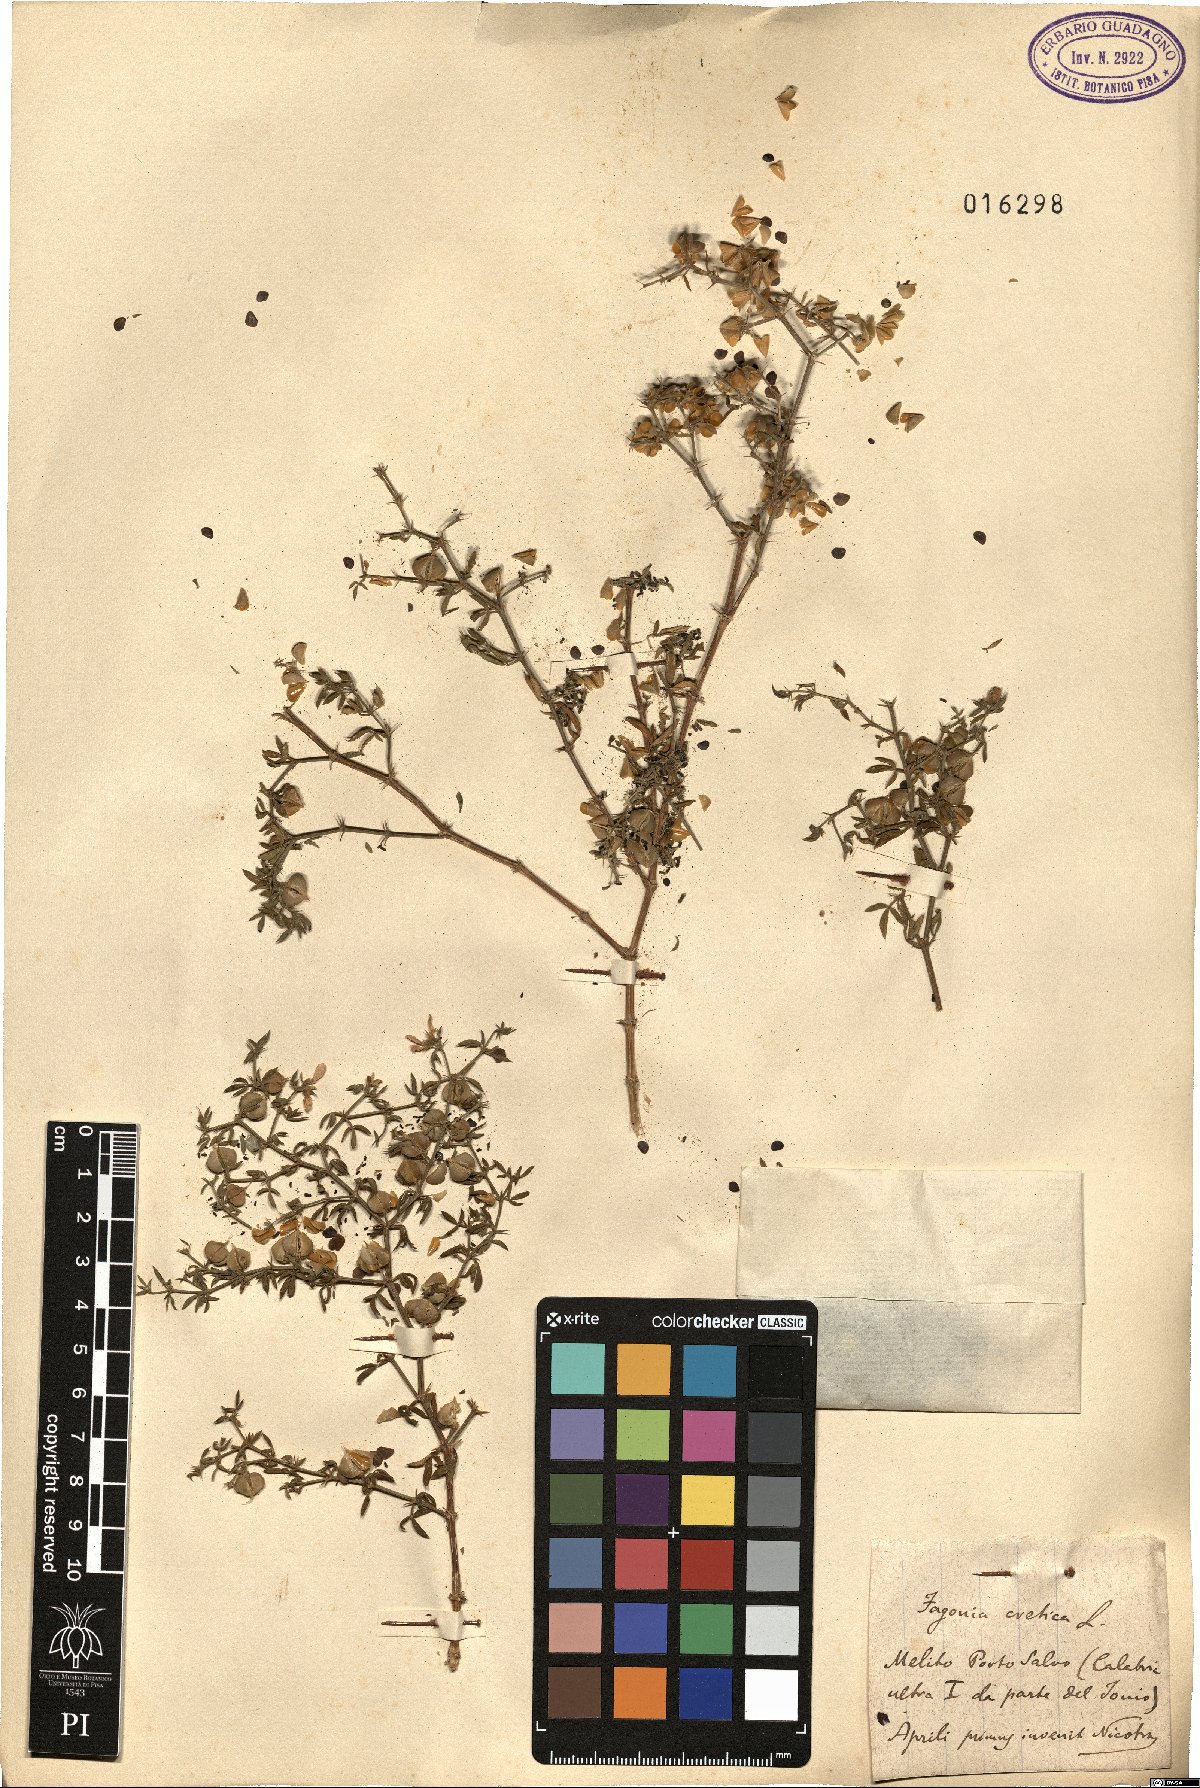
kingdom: Plantae
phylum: Tracheophyta
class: Magnoliopsida
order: Zygophyllales
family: Zygophyllaceae
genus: Fagonia
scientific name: Fagonia cretica
